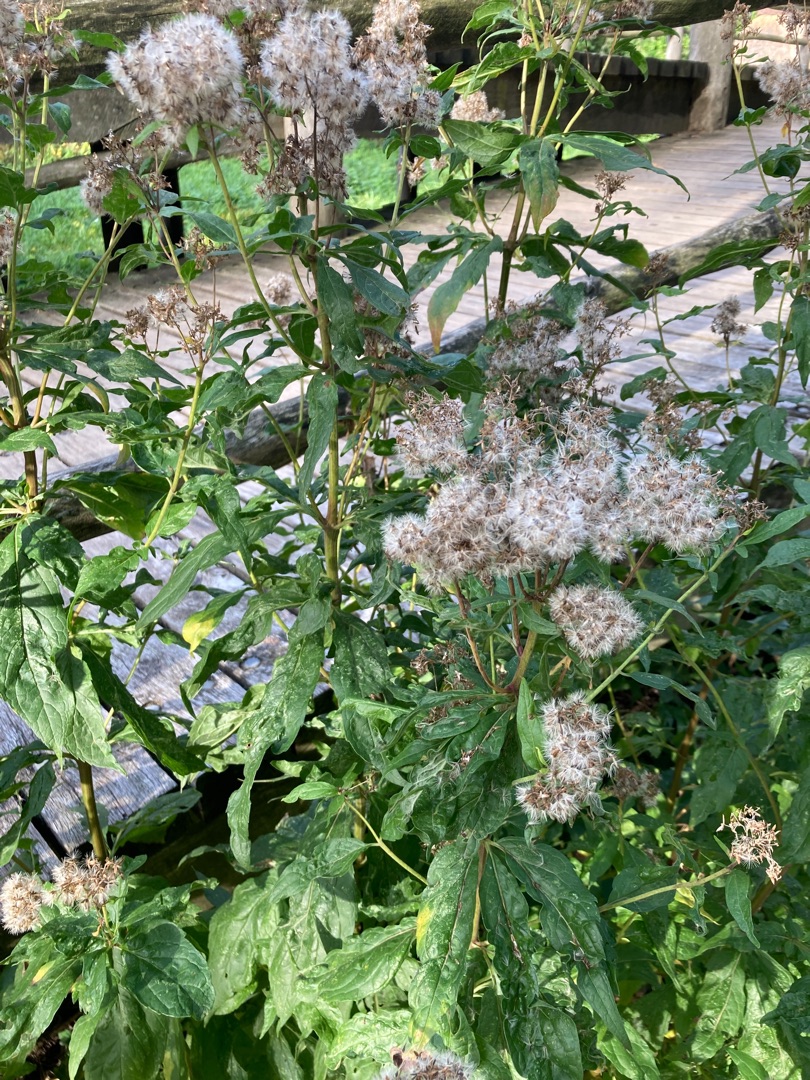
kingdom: Plantae
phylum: Tracheophyta
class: Magnoliopsida
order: Asterales
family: Asteraceae
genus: Eupatorium
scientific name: Eupatorium cannabinum
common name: Hjortetrøst
